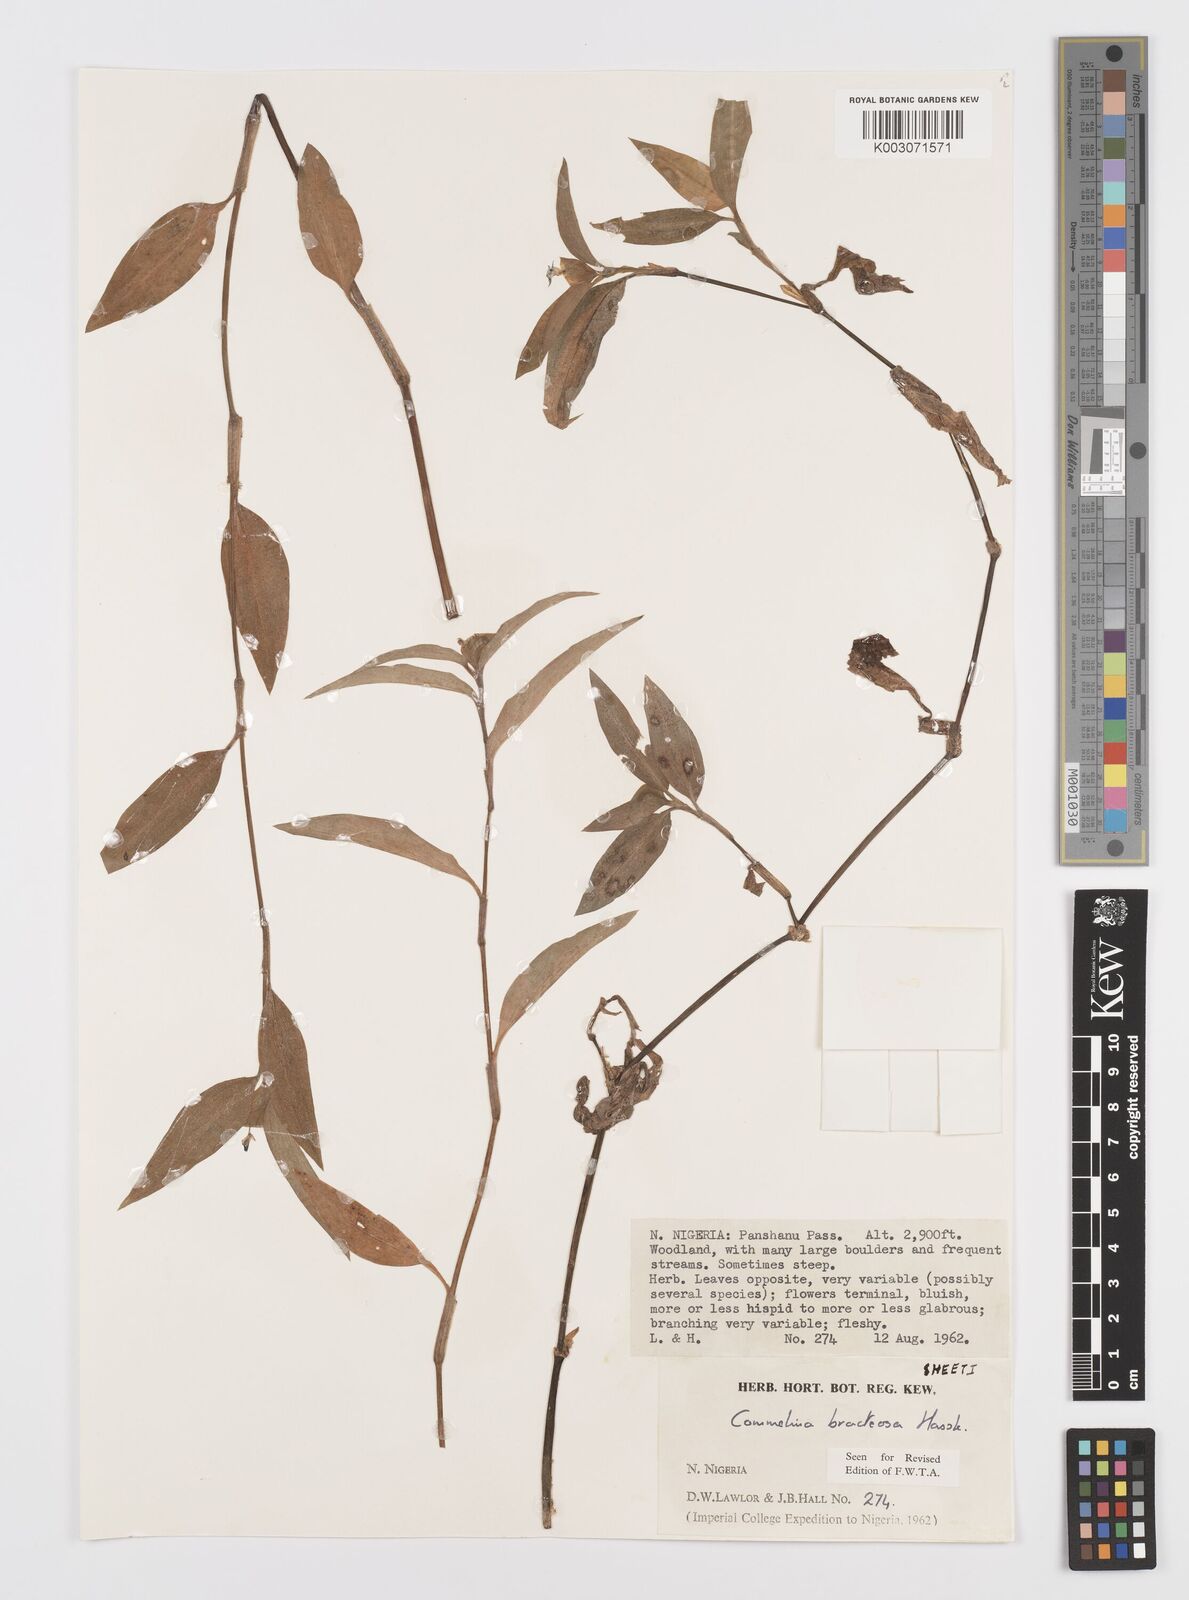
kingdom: Plantae
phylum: Tracheophyta
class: Liliopsida
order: Commelinales
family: Commelinaceae
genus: Commelina
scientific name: Commelina bracteosa
